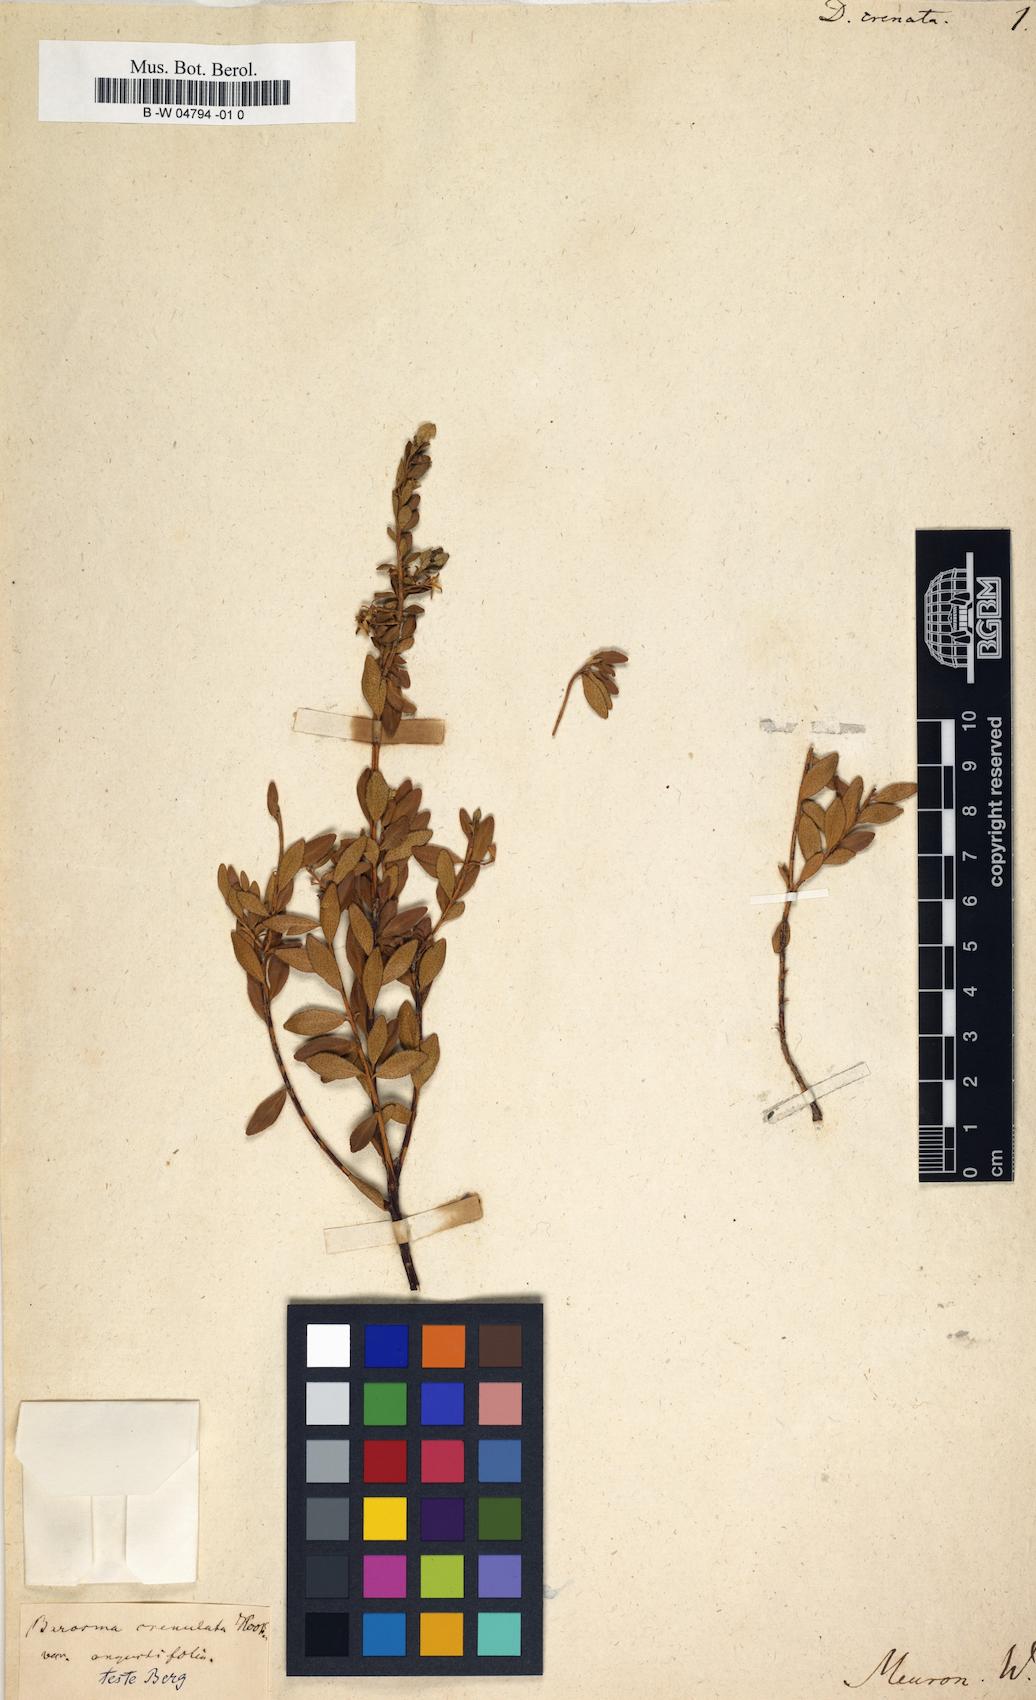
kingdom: Plantae
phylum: Tracheophyta
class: Magnoliopsida
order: Sapindales
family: Rutaceae
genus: Agathosma
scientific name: Agathosma
